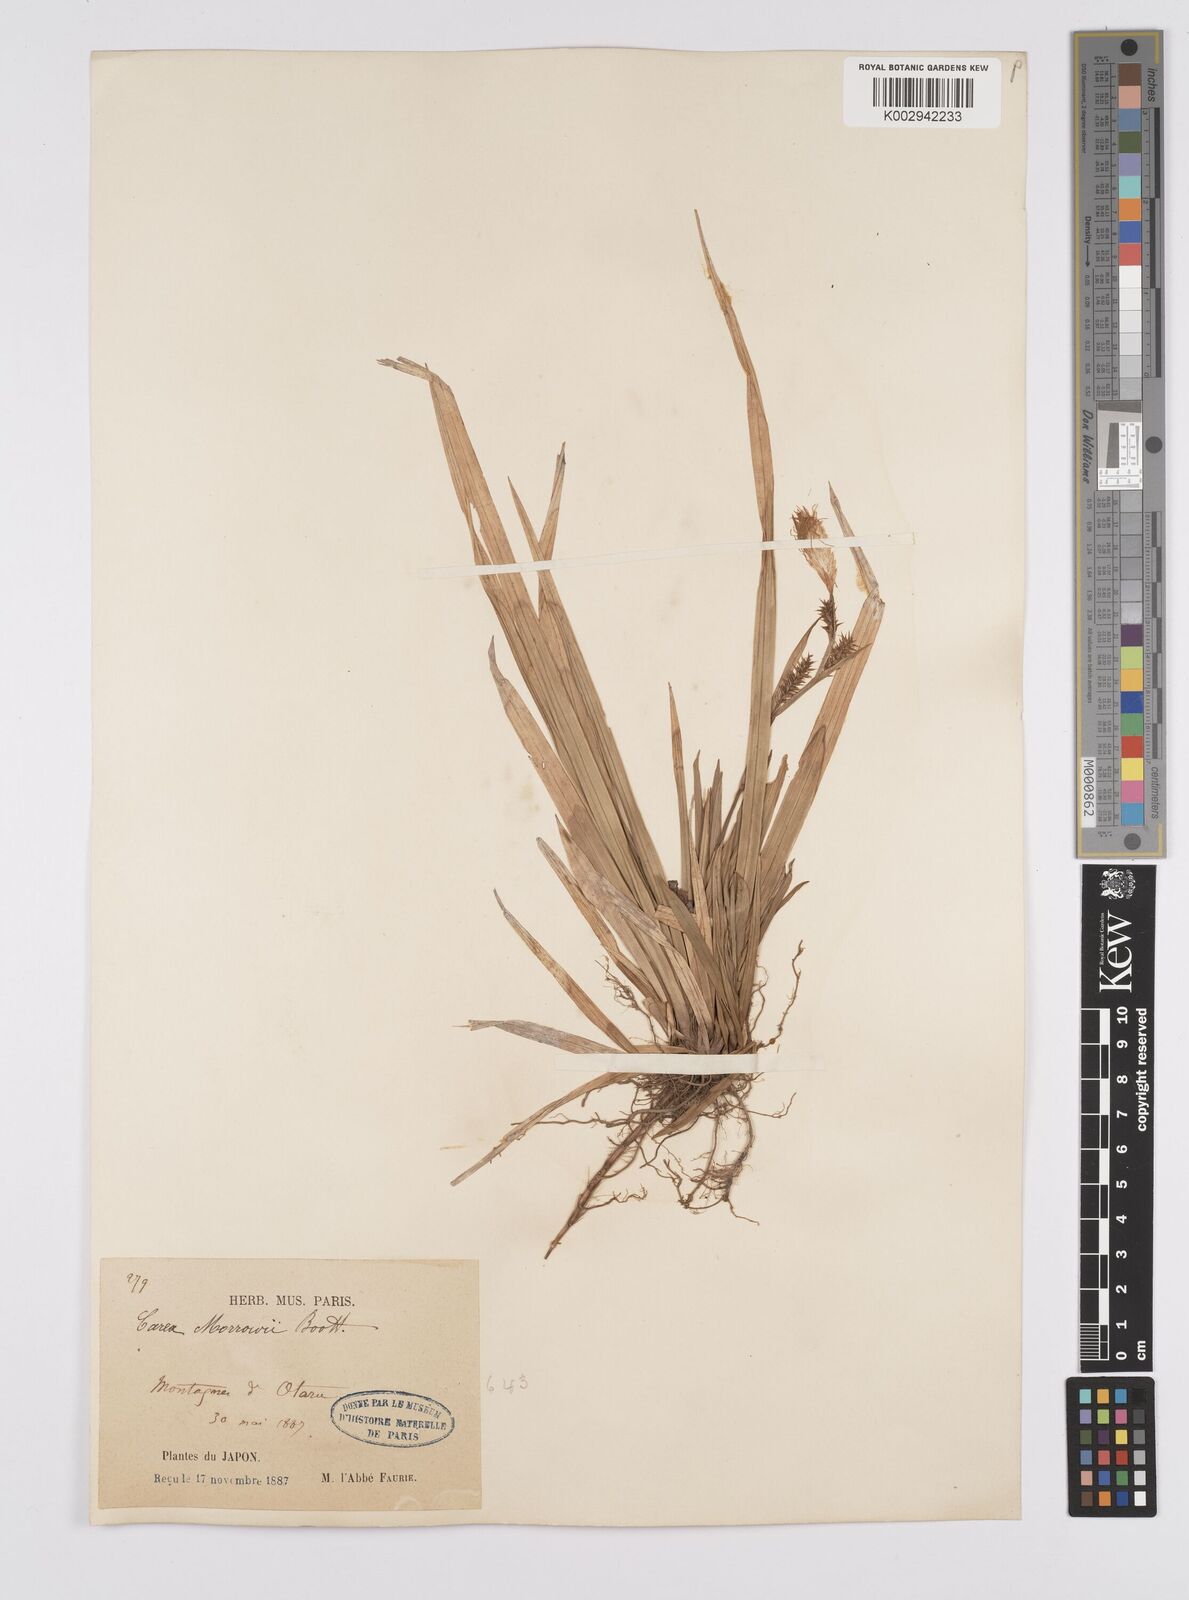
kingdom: Plantae
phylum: Tracheophyta
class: Liliopsida
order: Poales
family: Cyperaceae
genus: Carex
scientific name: Carex morrowii
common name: Japanese sedge
